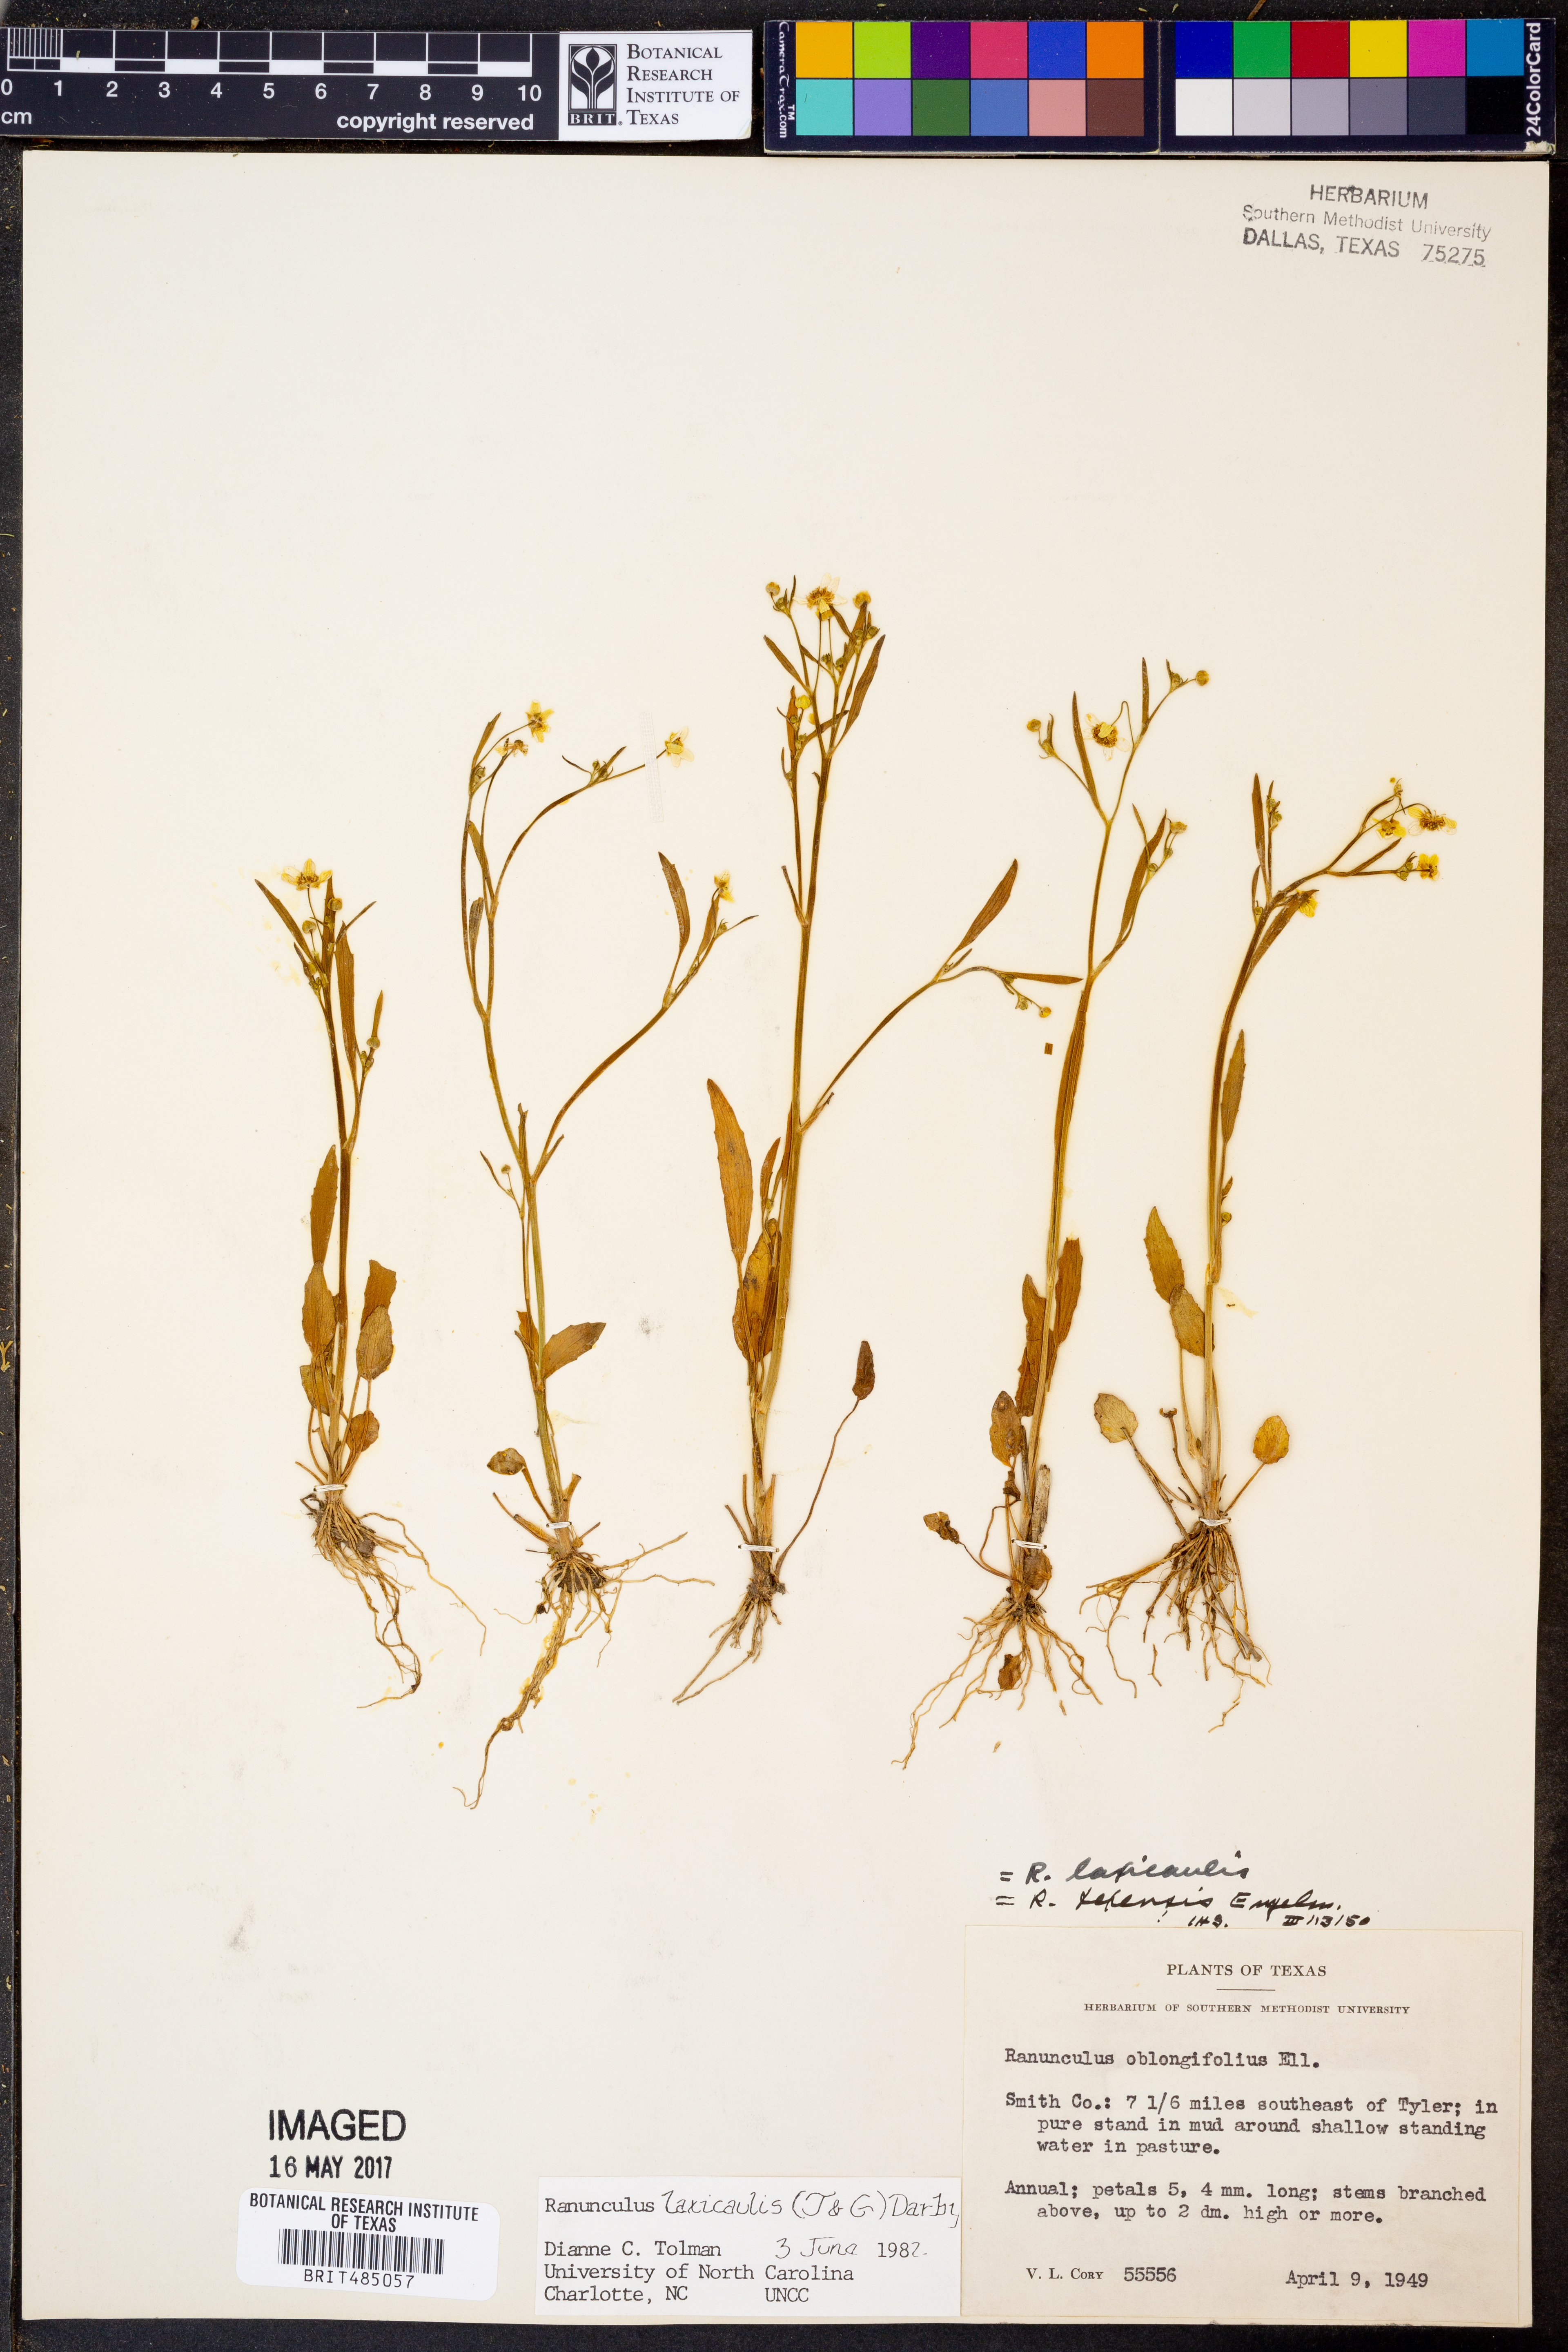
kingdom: Plantae
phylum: Tracheophyta
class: Magnoliopsida
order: Ranunculales
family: Ranunculaceae
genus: Ranunculus
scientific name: Ranunculus laxicaulis
